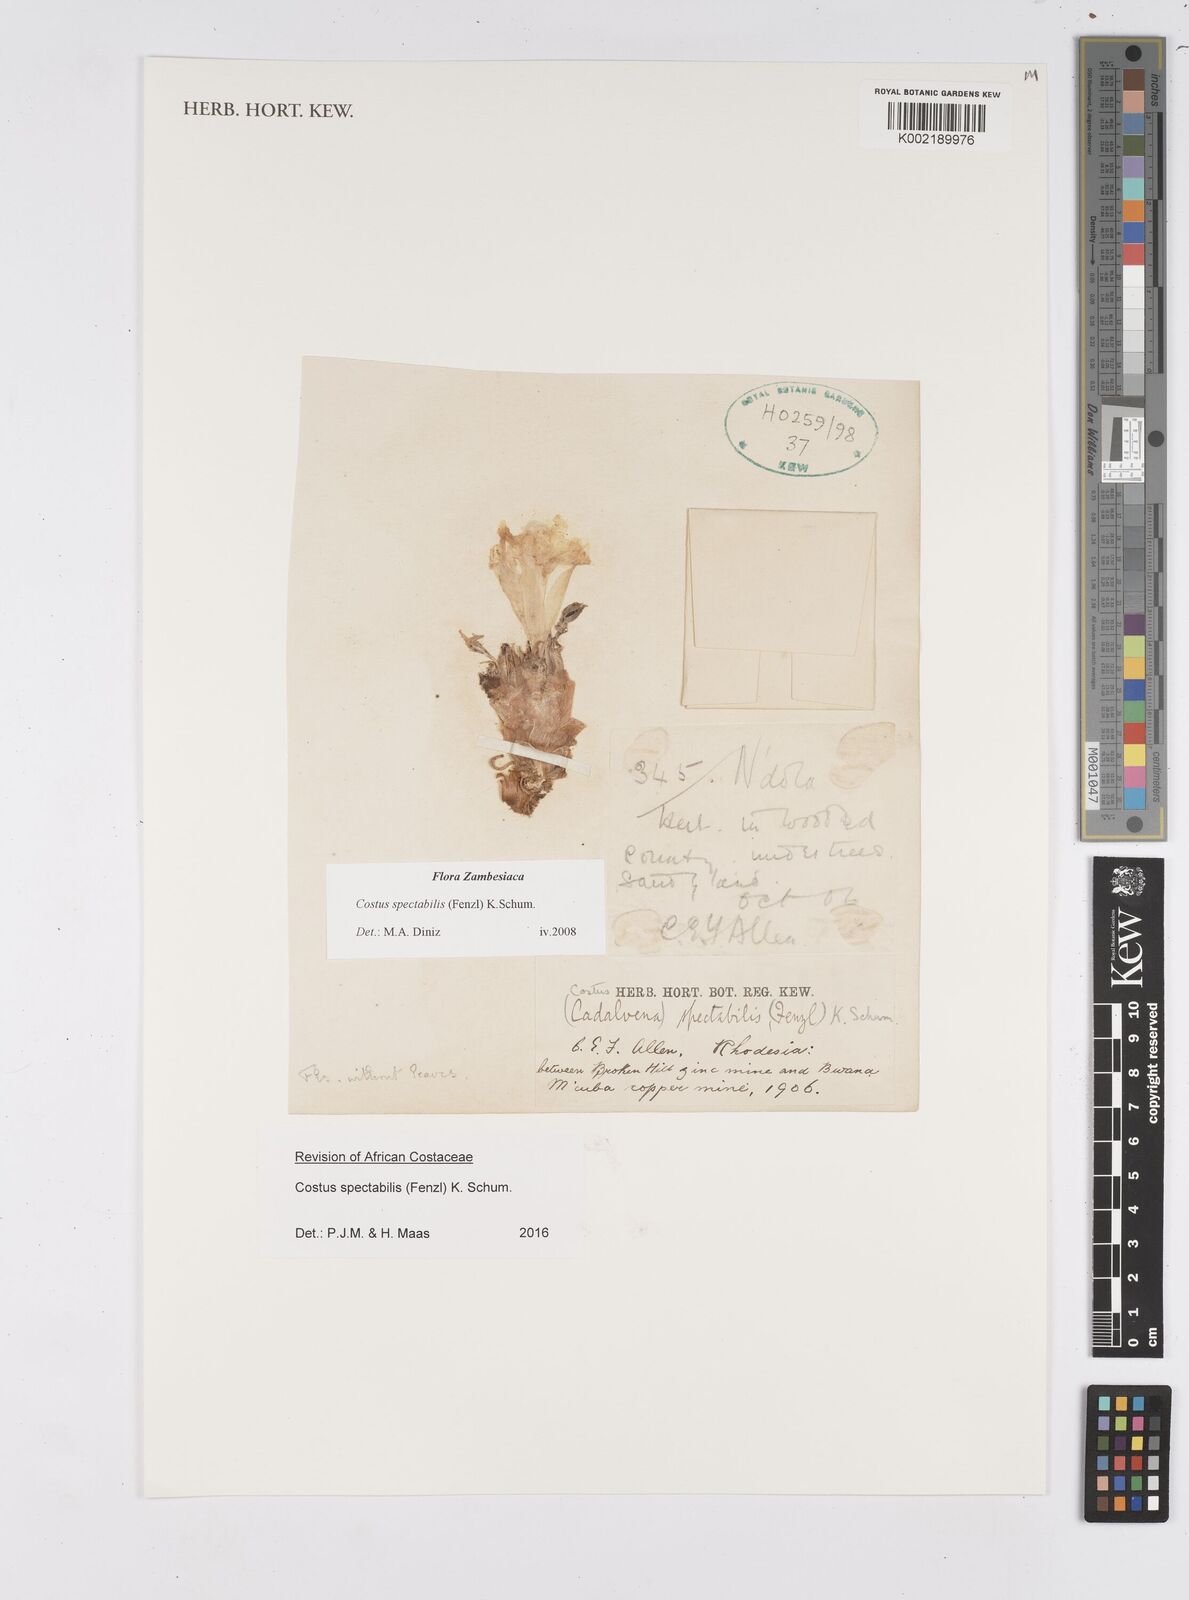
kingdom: Plantae
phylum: Tracheophyta
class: Liliopsida
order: Zingiberales
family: Costaceae
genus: Costus
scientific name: Costus spectabilis
